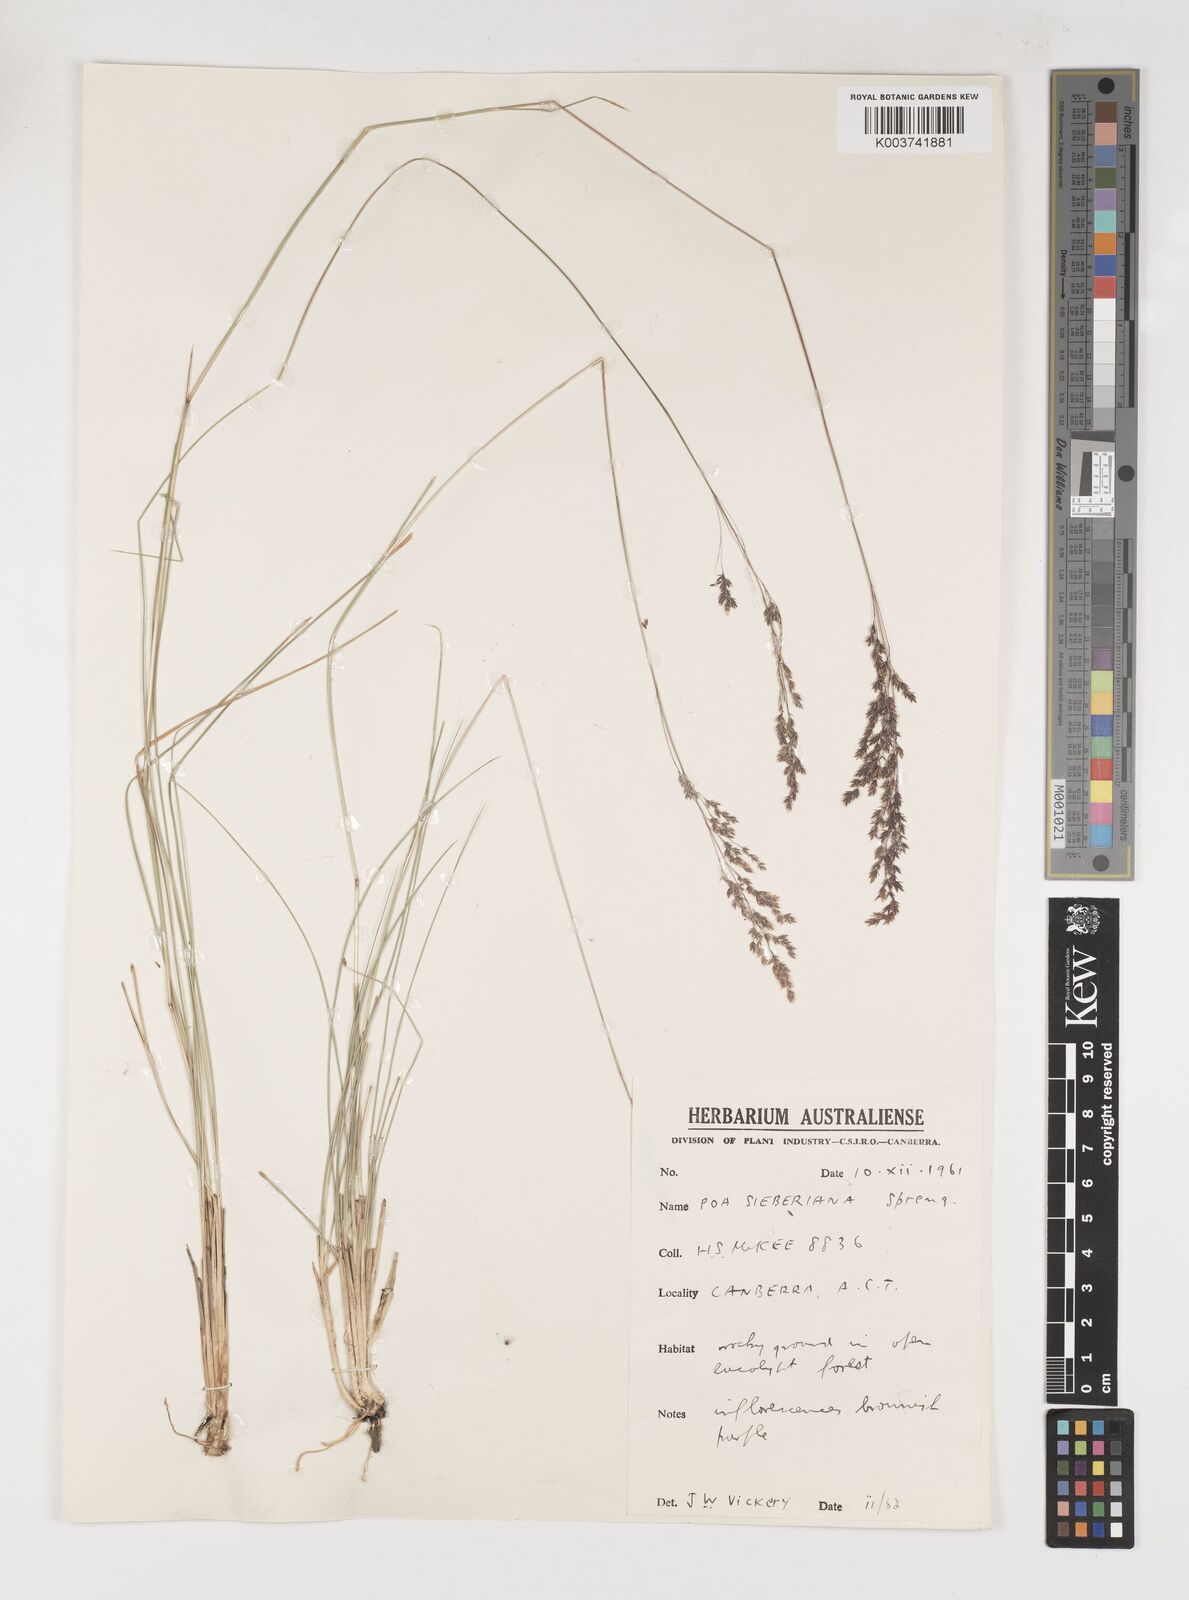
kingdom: Plantae
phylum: Tracheophyta
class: Liliopsida
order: Poales
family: Poaceae
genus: Poa
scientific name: Poa sieberiana
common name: Tussock poa
